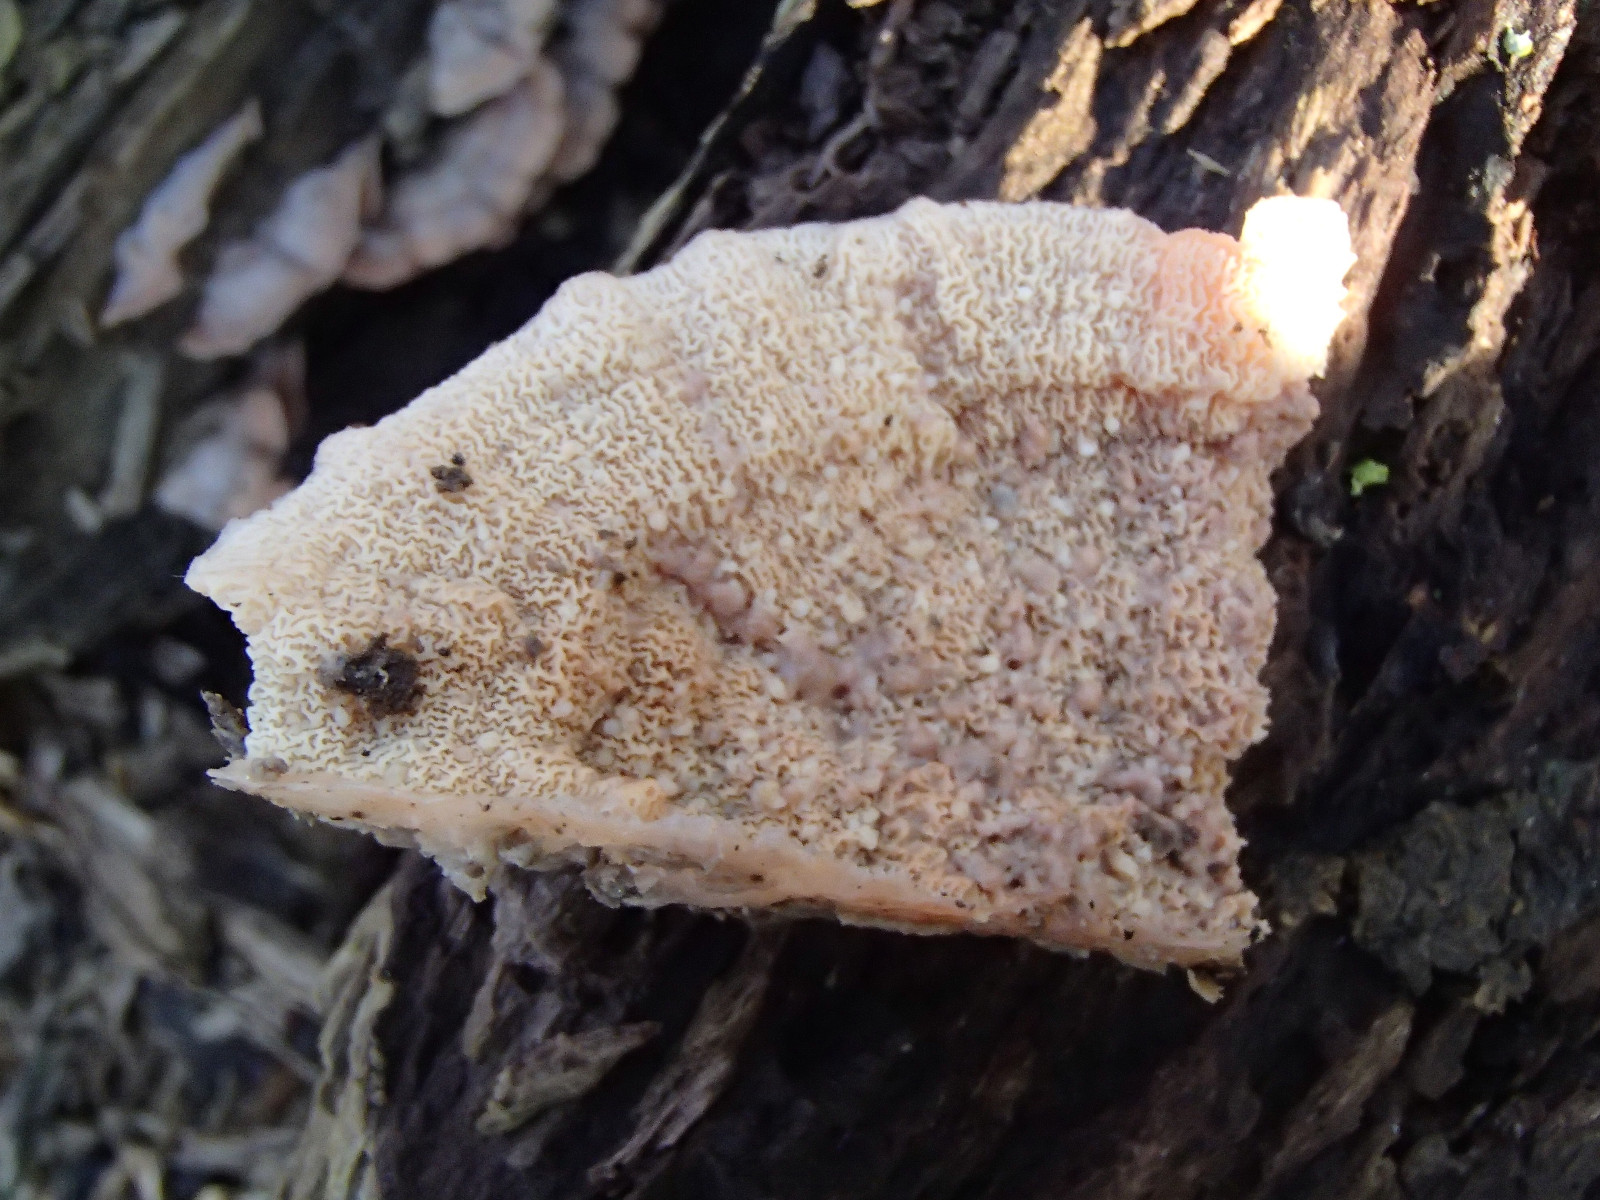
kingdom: Fungi
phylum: Basidiomycota
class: Agaricomycetes
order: Polyporales
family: Meruliaceae
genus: Phlebia
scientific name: Phlebia tremellosa
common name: bævrende åresvamp
